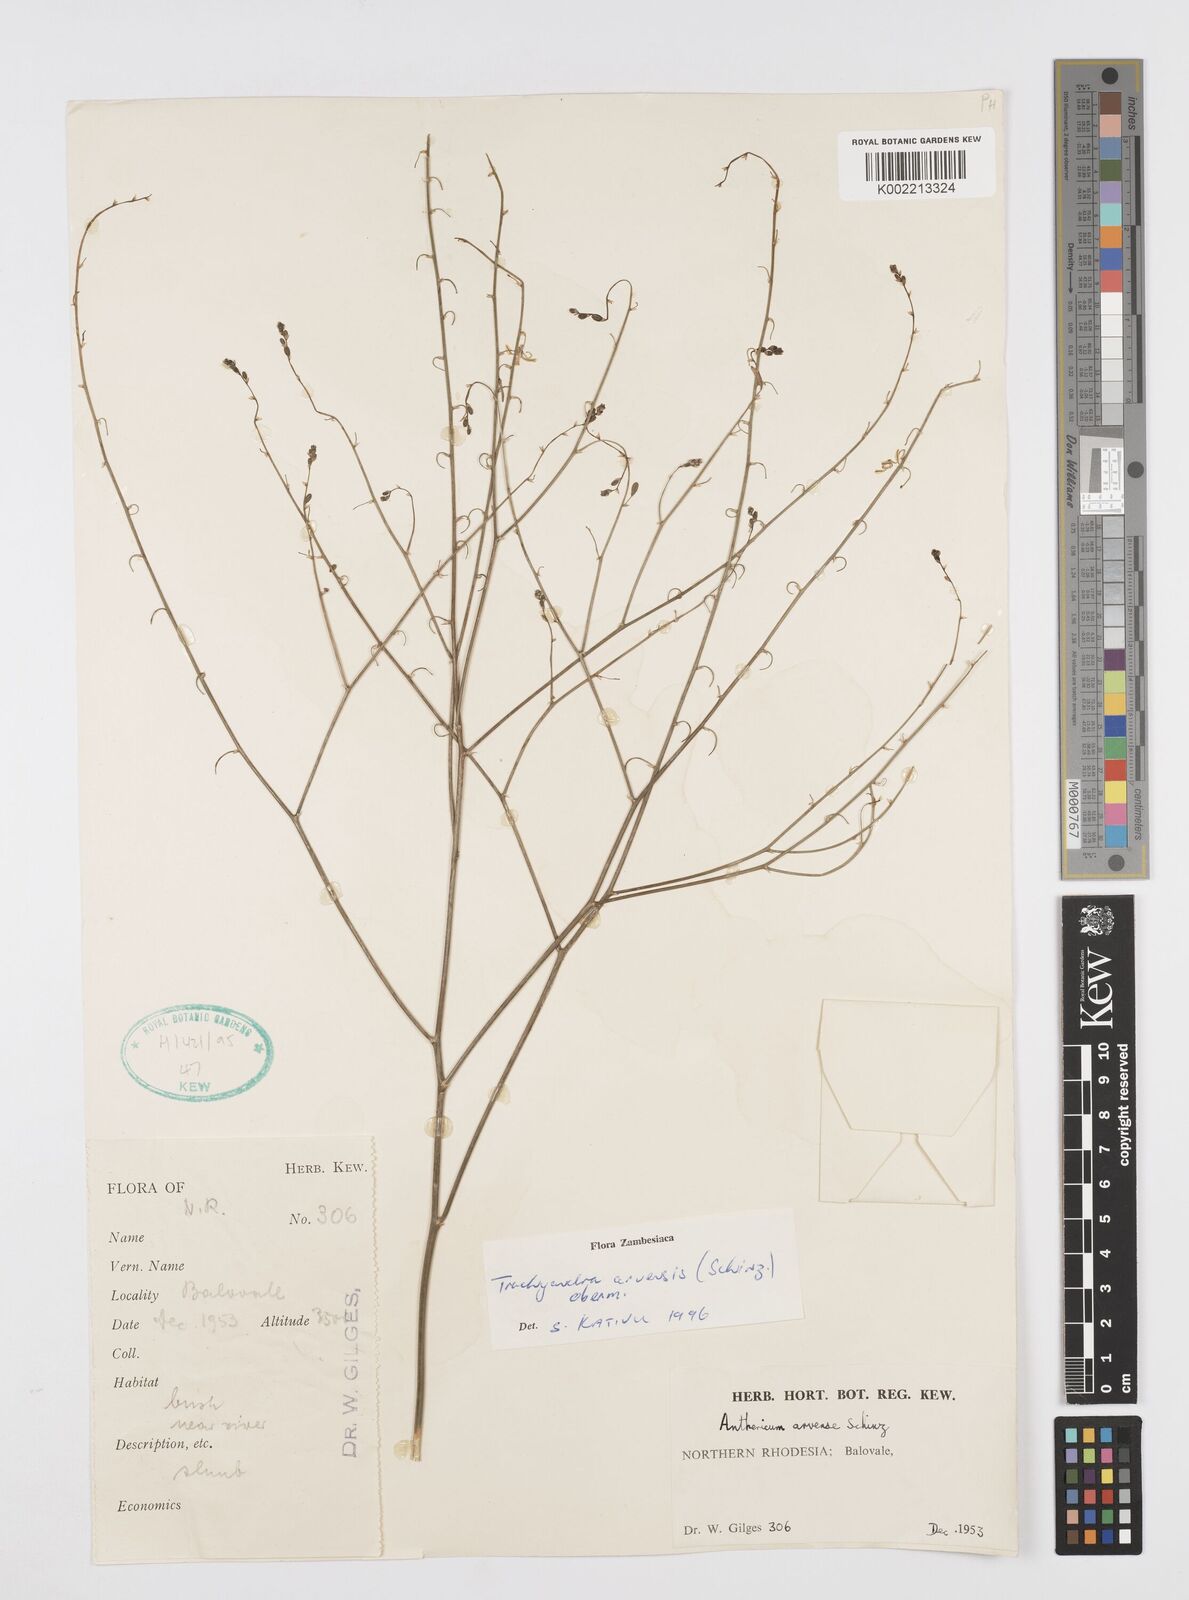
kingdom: Plantae
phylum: Tracheophyta
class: Liliopsida
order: Asparagales
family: Asphodelaceae
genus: Trachyandra
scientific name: Trachyandra arvensis
